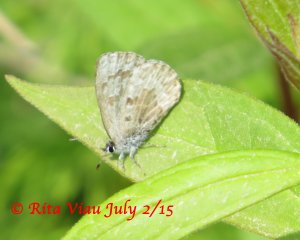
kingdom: Animalia
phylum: Arthropoda
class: Insecta
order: Lepidoptera
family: Lycaenidae
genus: Celastrina
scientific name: Celastrina
